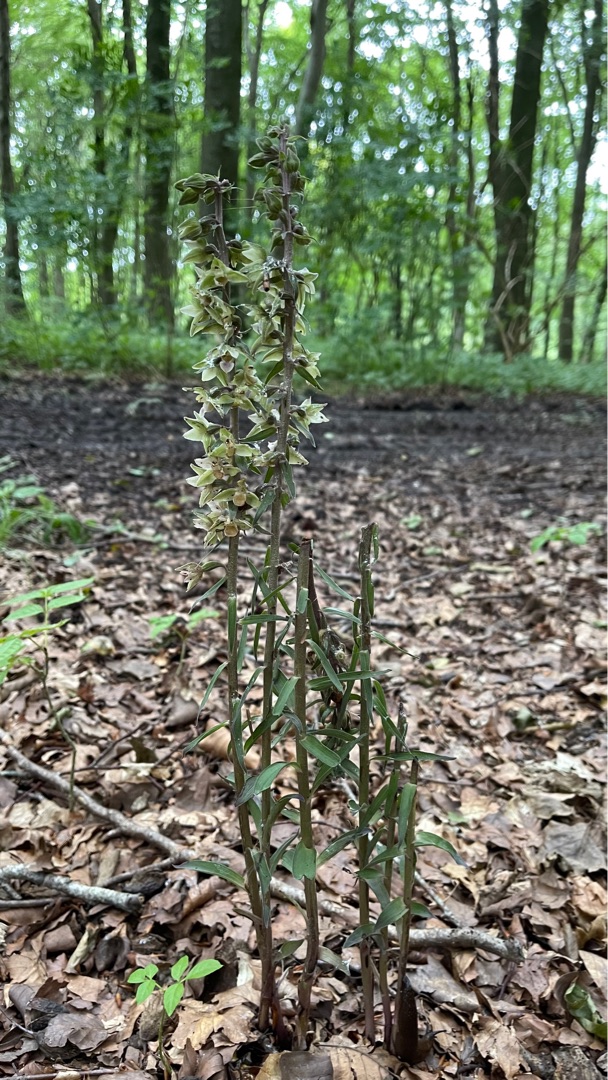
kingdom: Plantae
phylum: Tracheophyta
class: Liliopsida
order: Asparagales
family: Orchidaceae
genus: Epipactis
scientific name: Epipactis purpurata
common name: Tætblomstret hullæbe
